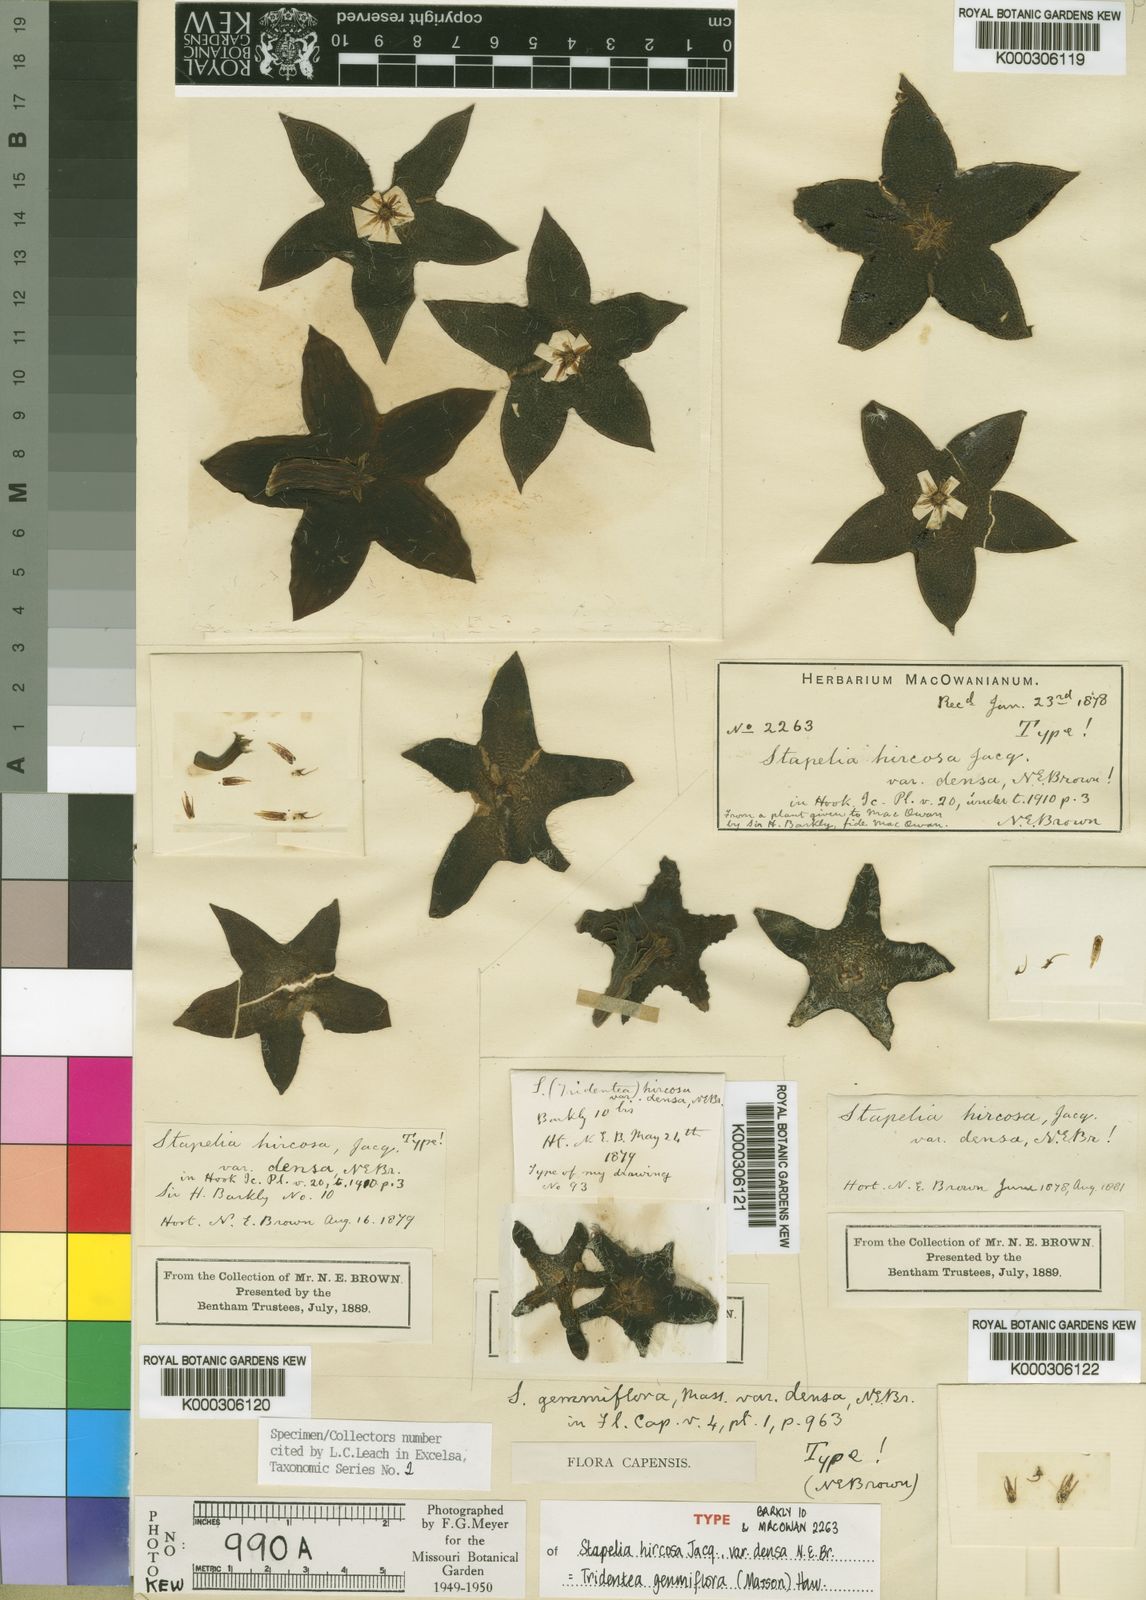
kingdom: Plantae
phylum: Tracheophyta
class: Magnoliopsida
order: Gentianales
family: Apocynaceae
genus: Ceropegia
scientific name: Ceropegia gemmiflora
